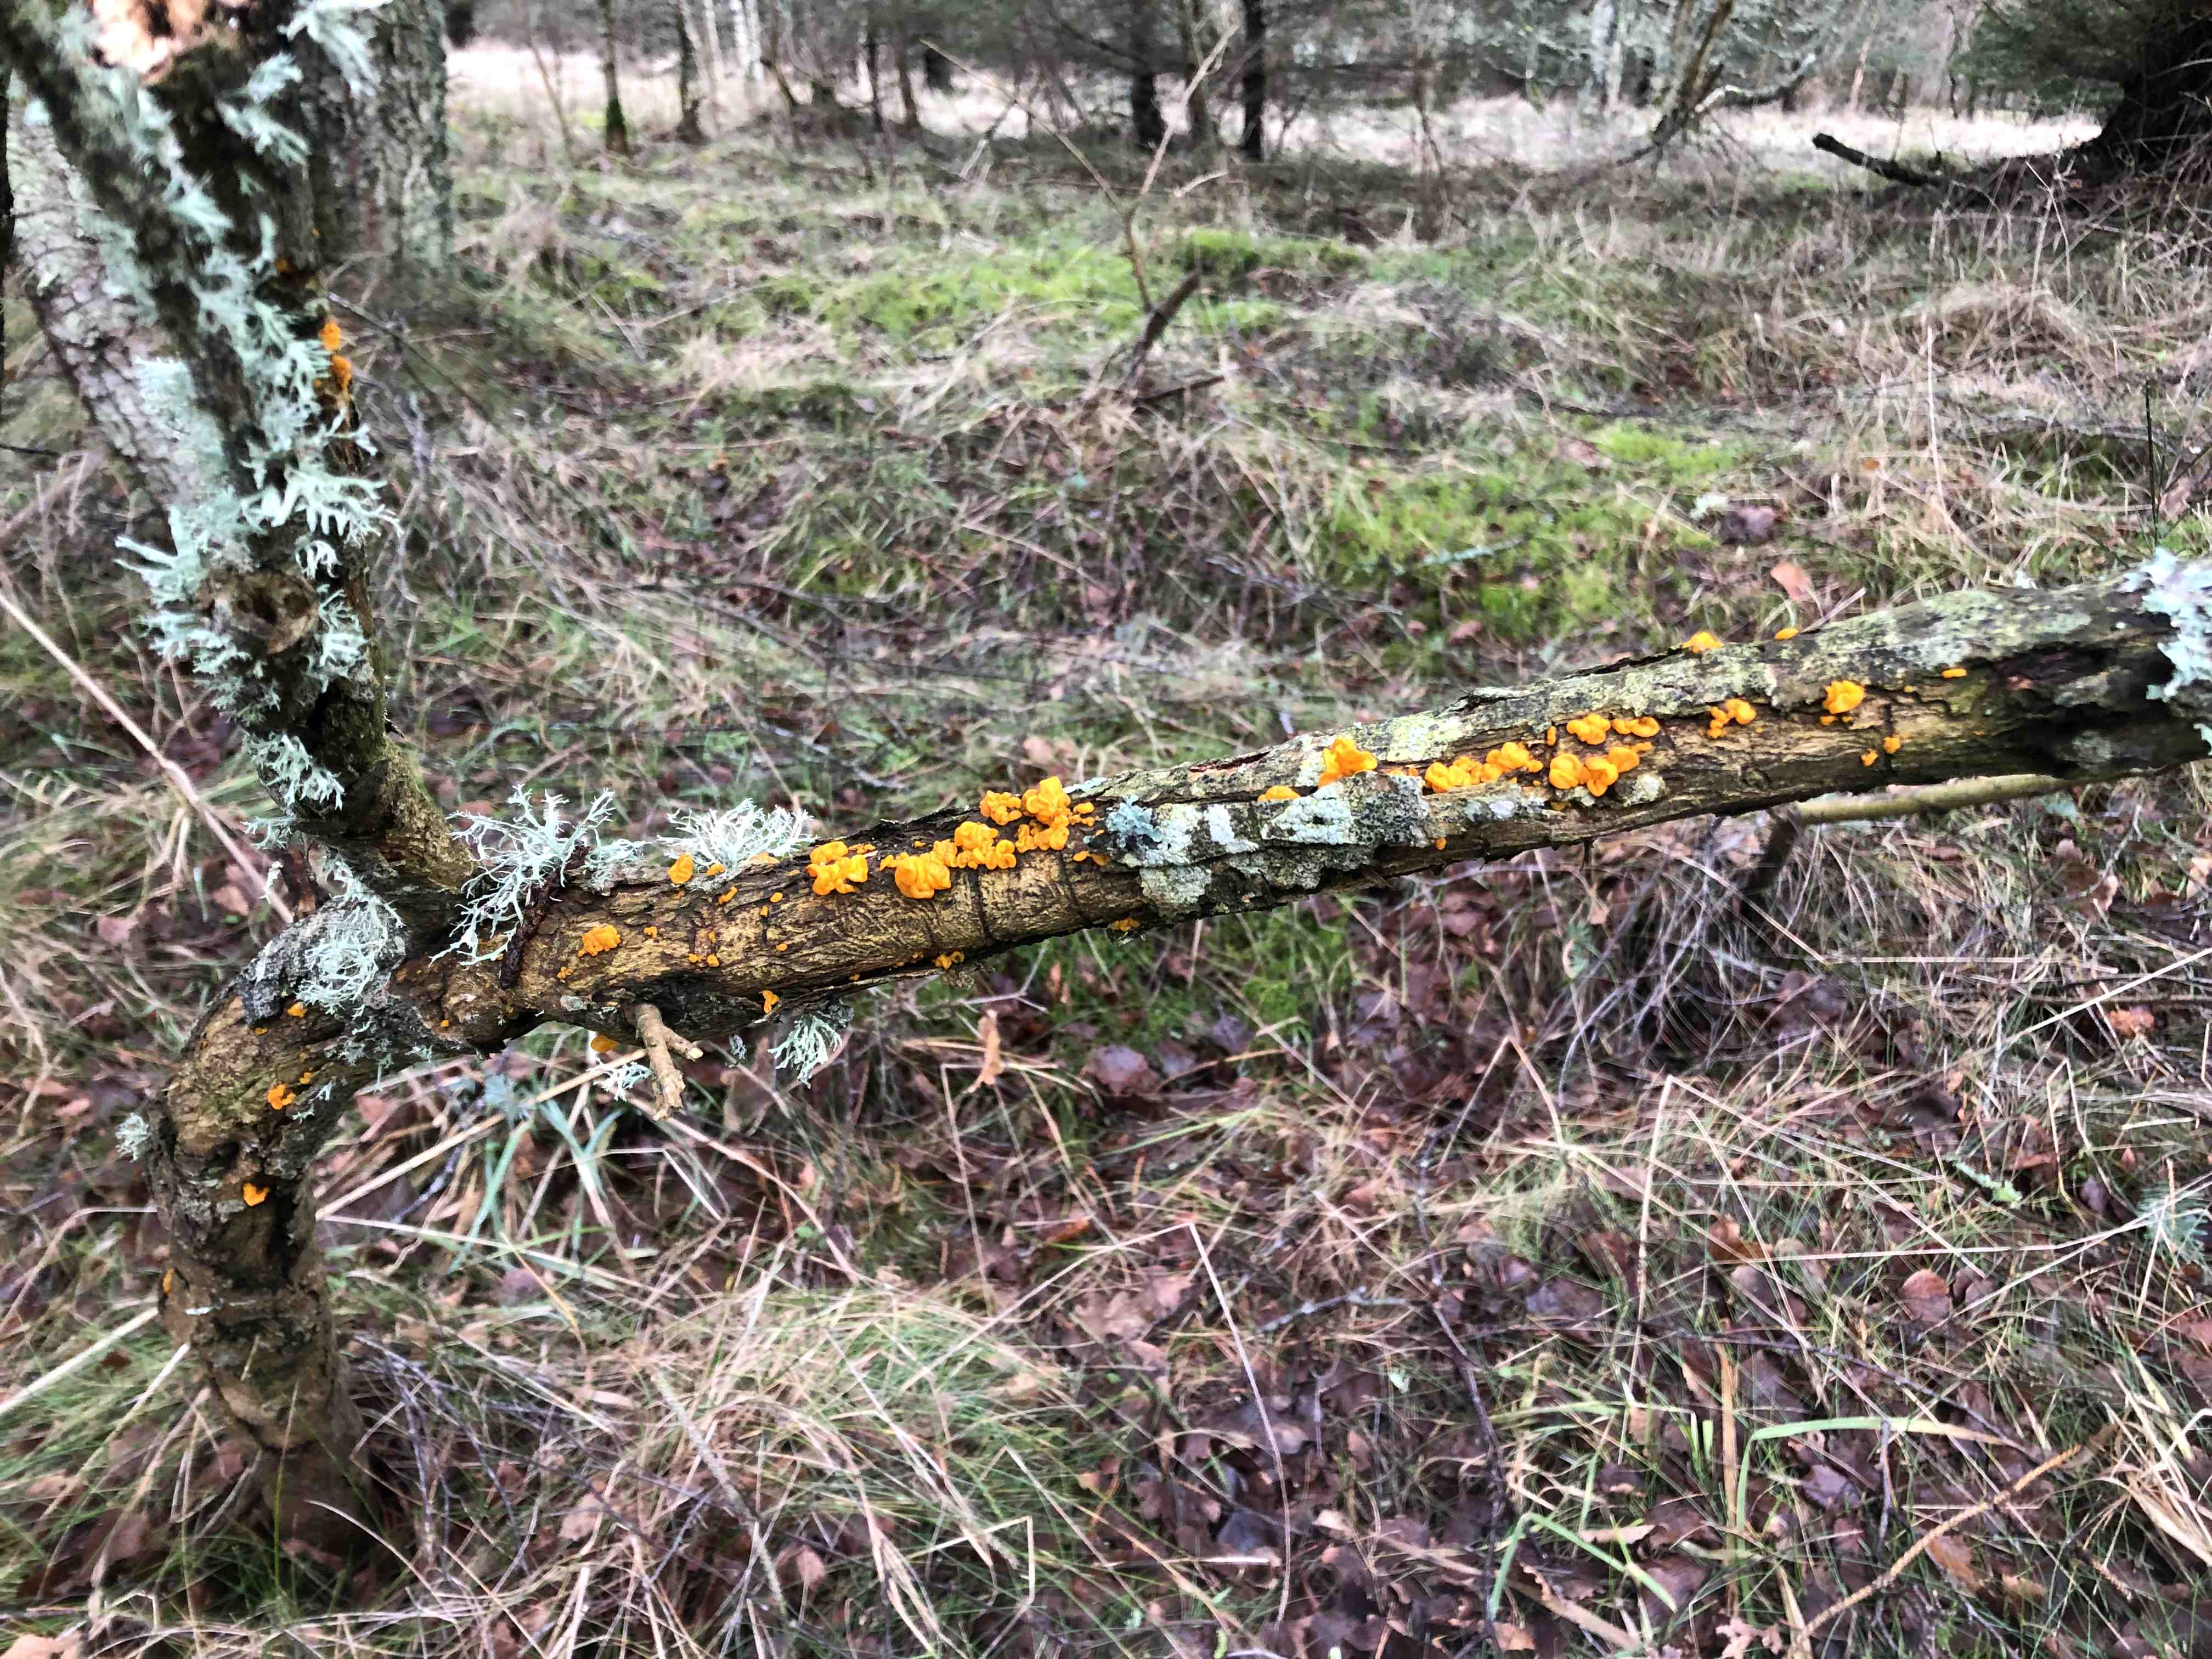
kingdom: Fungi
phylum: Basidiomycota
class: Tremellomycetes
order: Tremellales
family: Tremellaceae
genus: Tremella
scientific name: Tremella mesenterica
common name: gul bævresvamp
